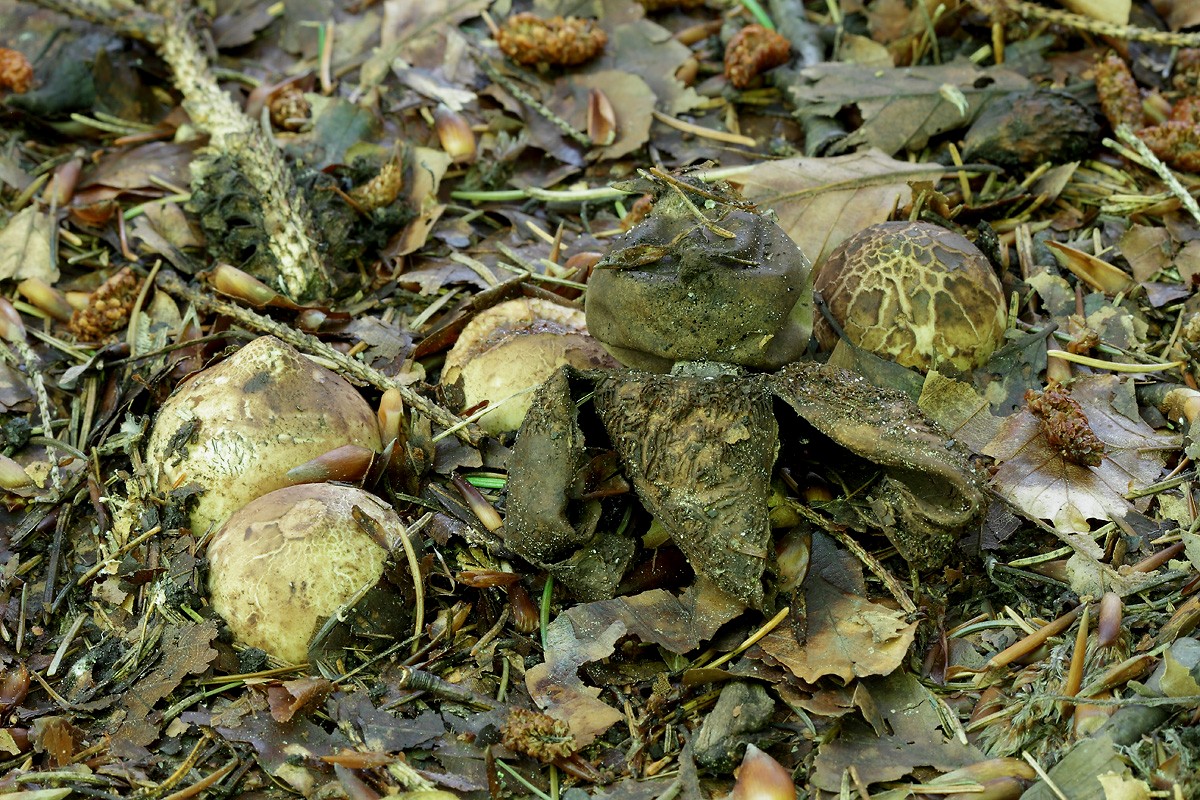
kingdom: Fungi
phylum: Basidiomycota
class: Agaricomycetes
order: Geastrales
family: Geastraceae
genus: Geastrum
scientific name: Geastrum michelianum
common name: kødet stjernebold
